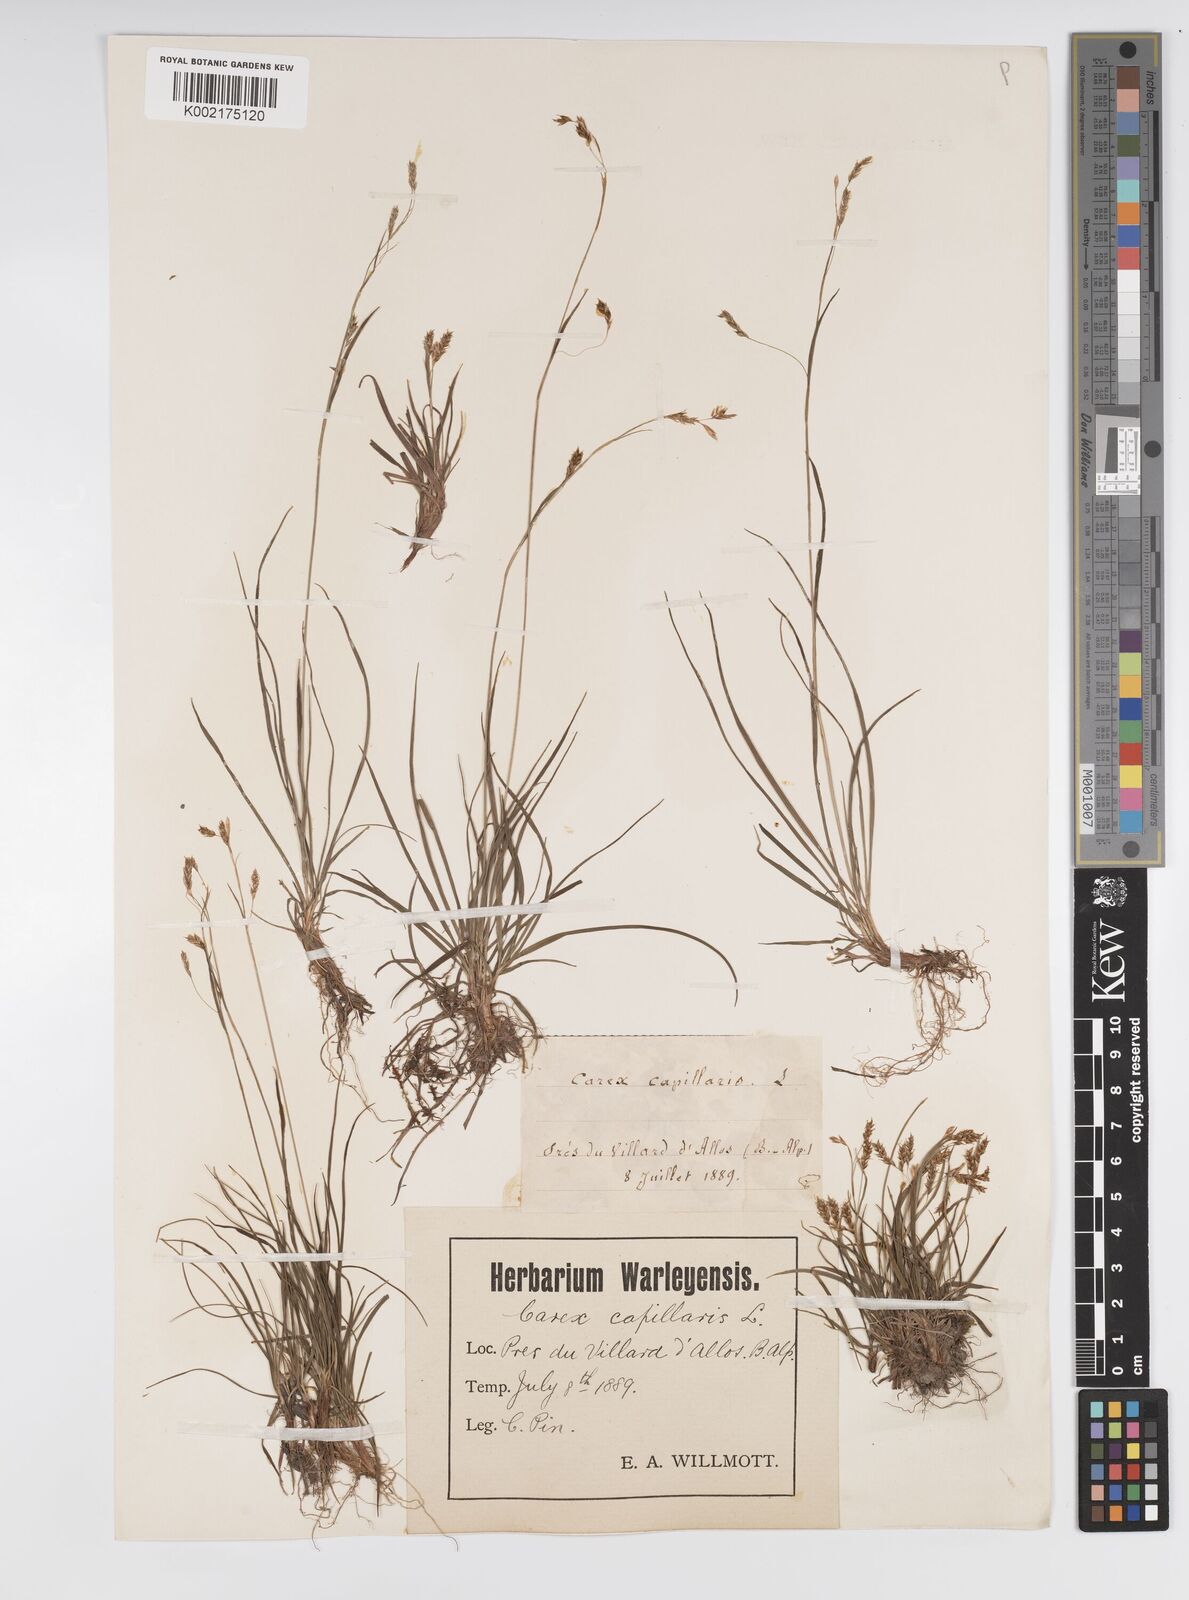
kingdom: Plantae
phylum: Tracheophyta
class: Liliopsida
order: Poales
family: Cyperaceae
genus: Carex
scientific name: Carex capillaris
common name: Hair sedge
